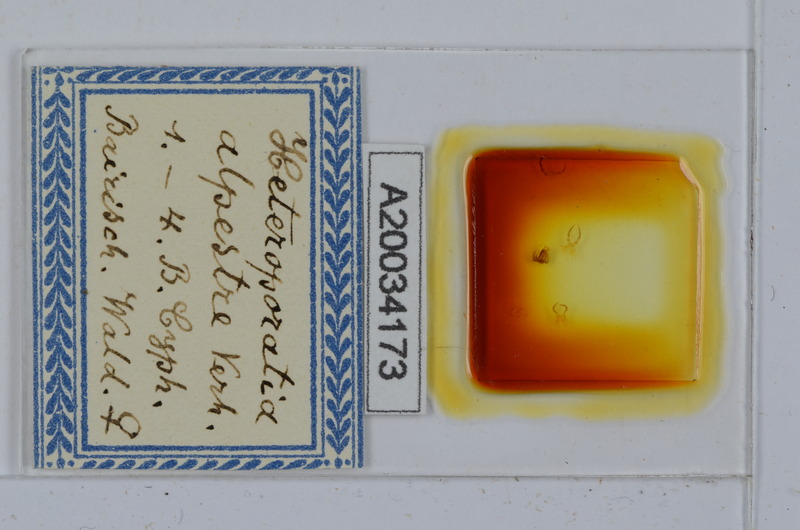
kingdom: Animalia
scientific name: Animalia
